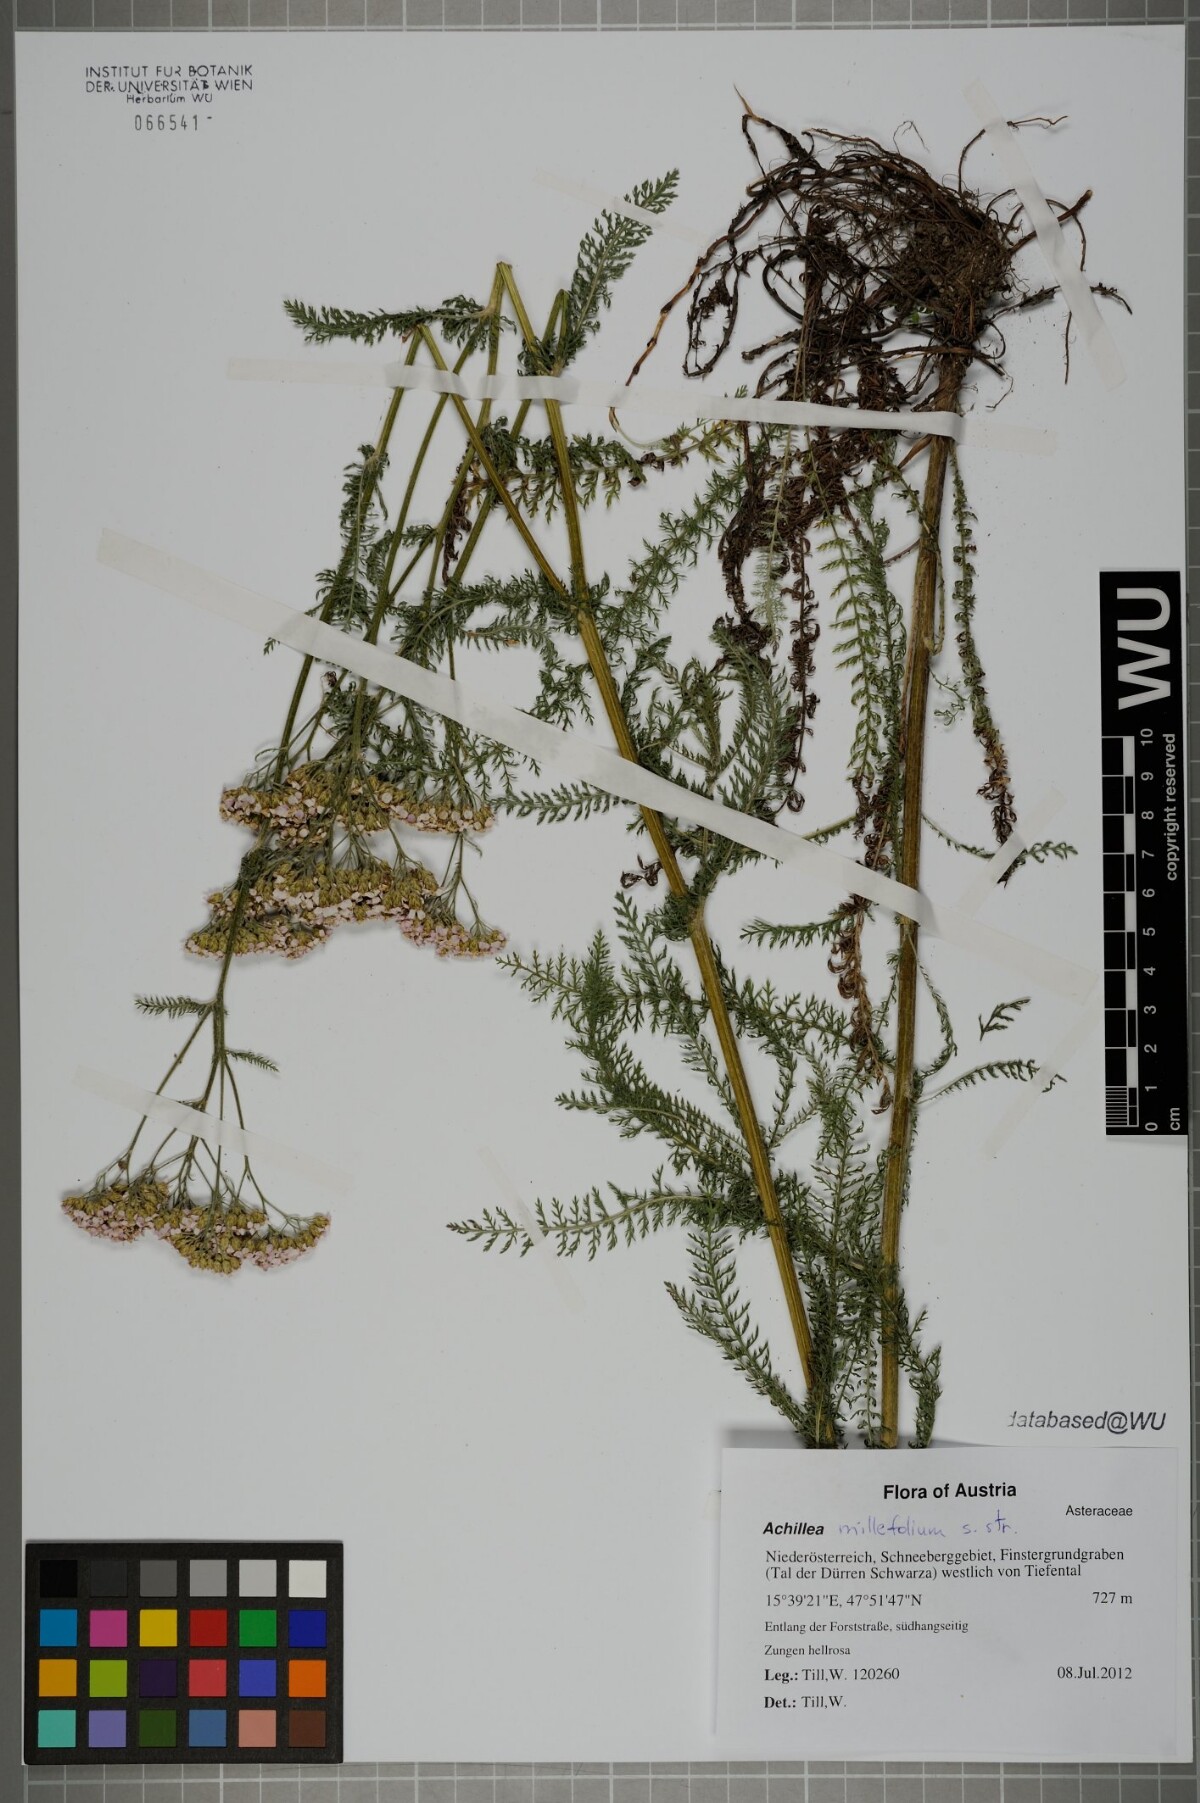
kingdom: Plantae
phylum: Tracheophyta
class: Magnoliopsida
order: Asterales
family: Asteraceae
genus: Achillea
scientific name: Achillea millefolium
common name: Yarrow
